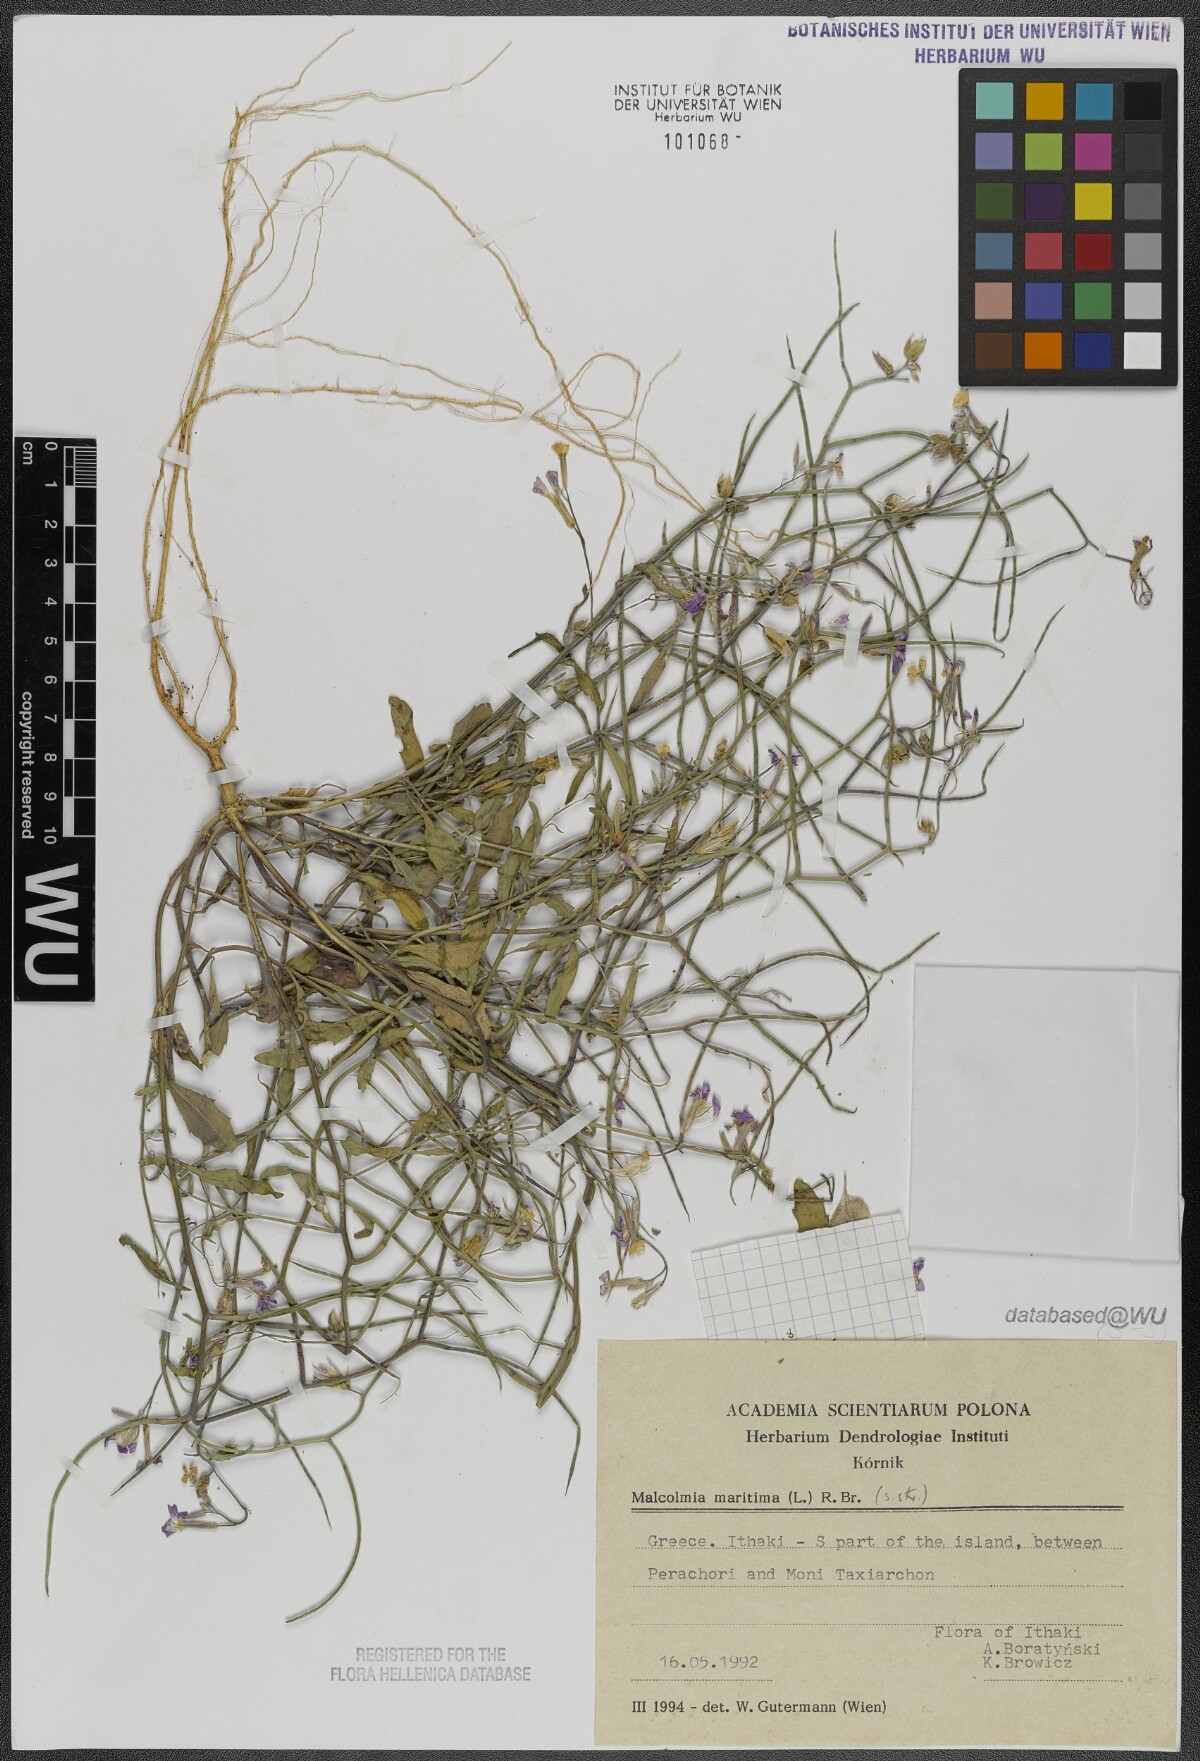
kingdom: Plantae
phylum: Tracheophyta
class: Magnoliopsida
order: Brassicales
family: Brassicaceae
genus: Malcolmia
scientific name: Malcolmia maritima
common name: Virginia stock
